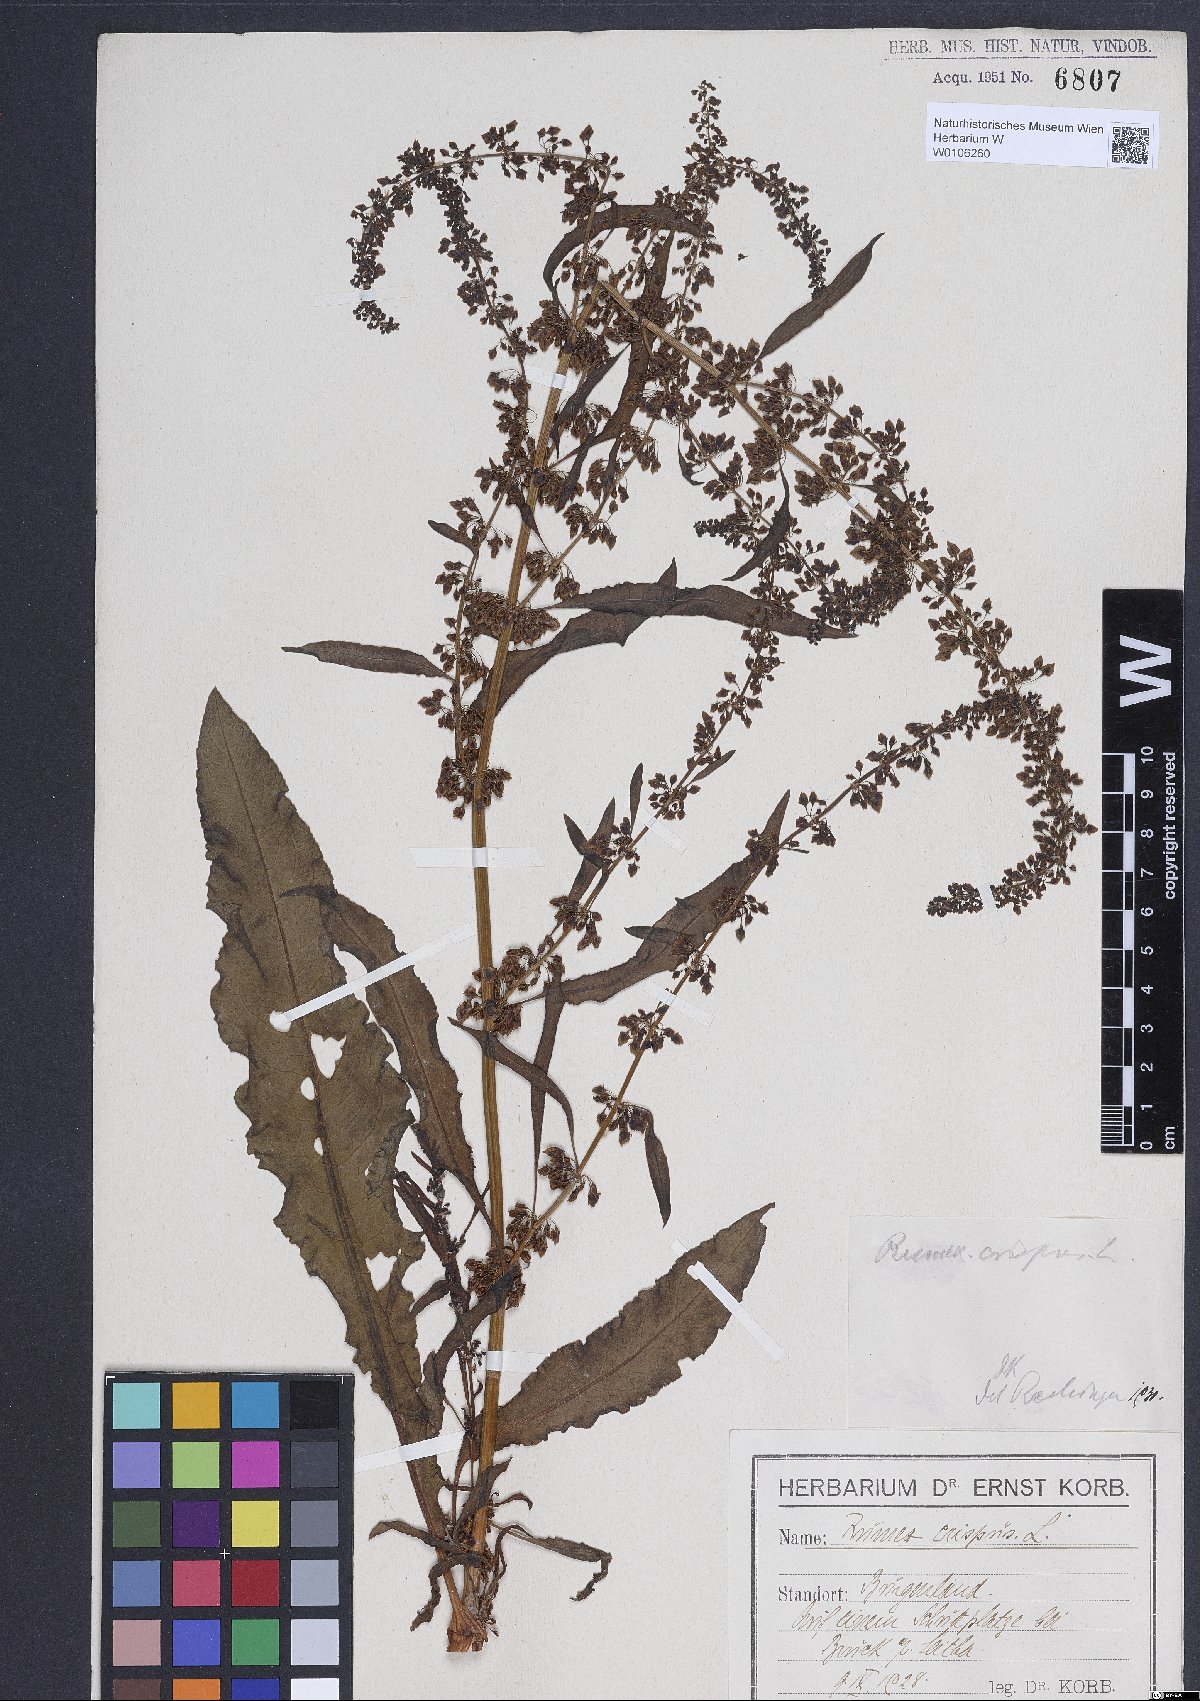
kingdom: Plantae
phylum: Tracheophyta
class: Magnoliopsida
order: Caryophyllales
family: Polygonaceae
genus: Rumex
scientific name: Rumex crispus
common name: Curled dock
